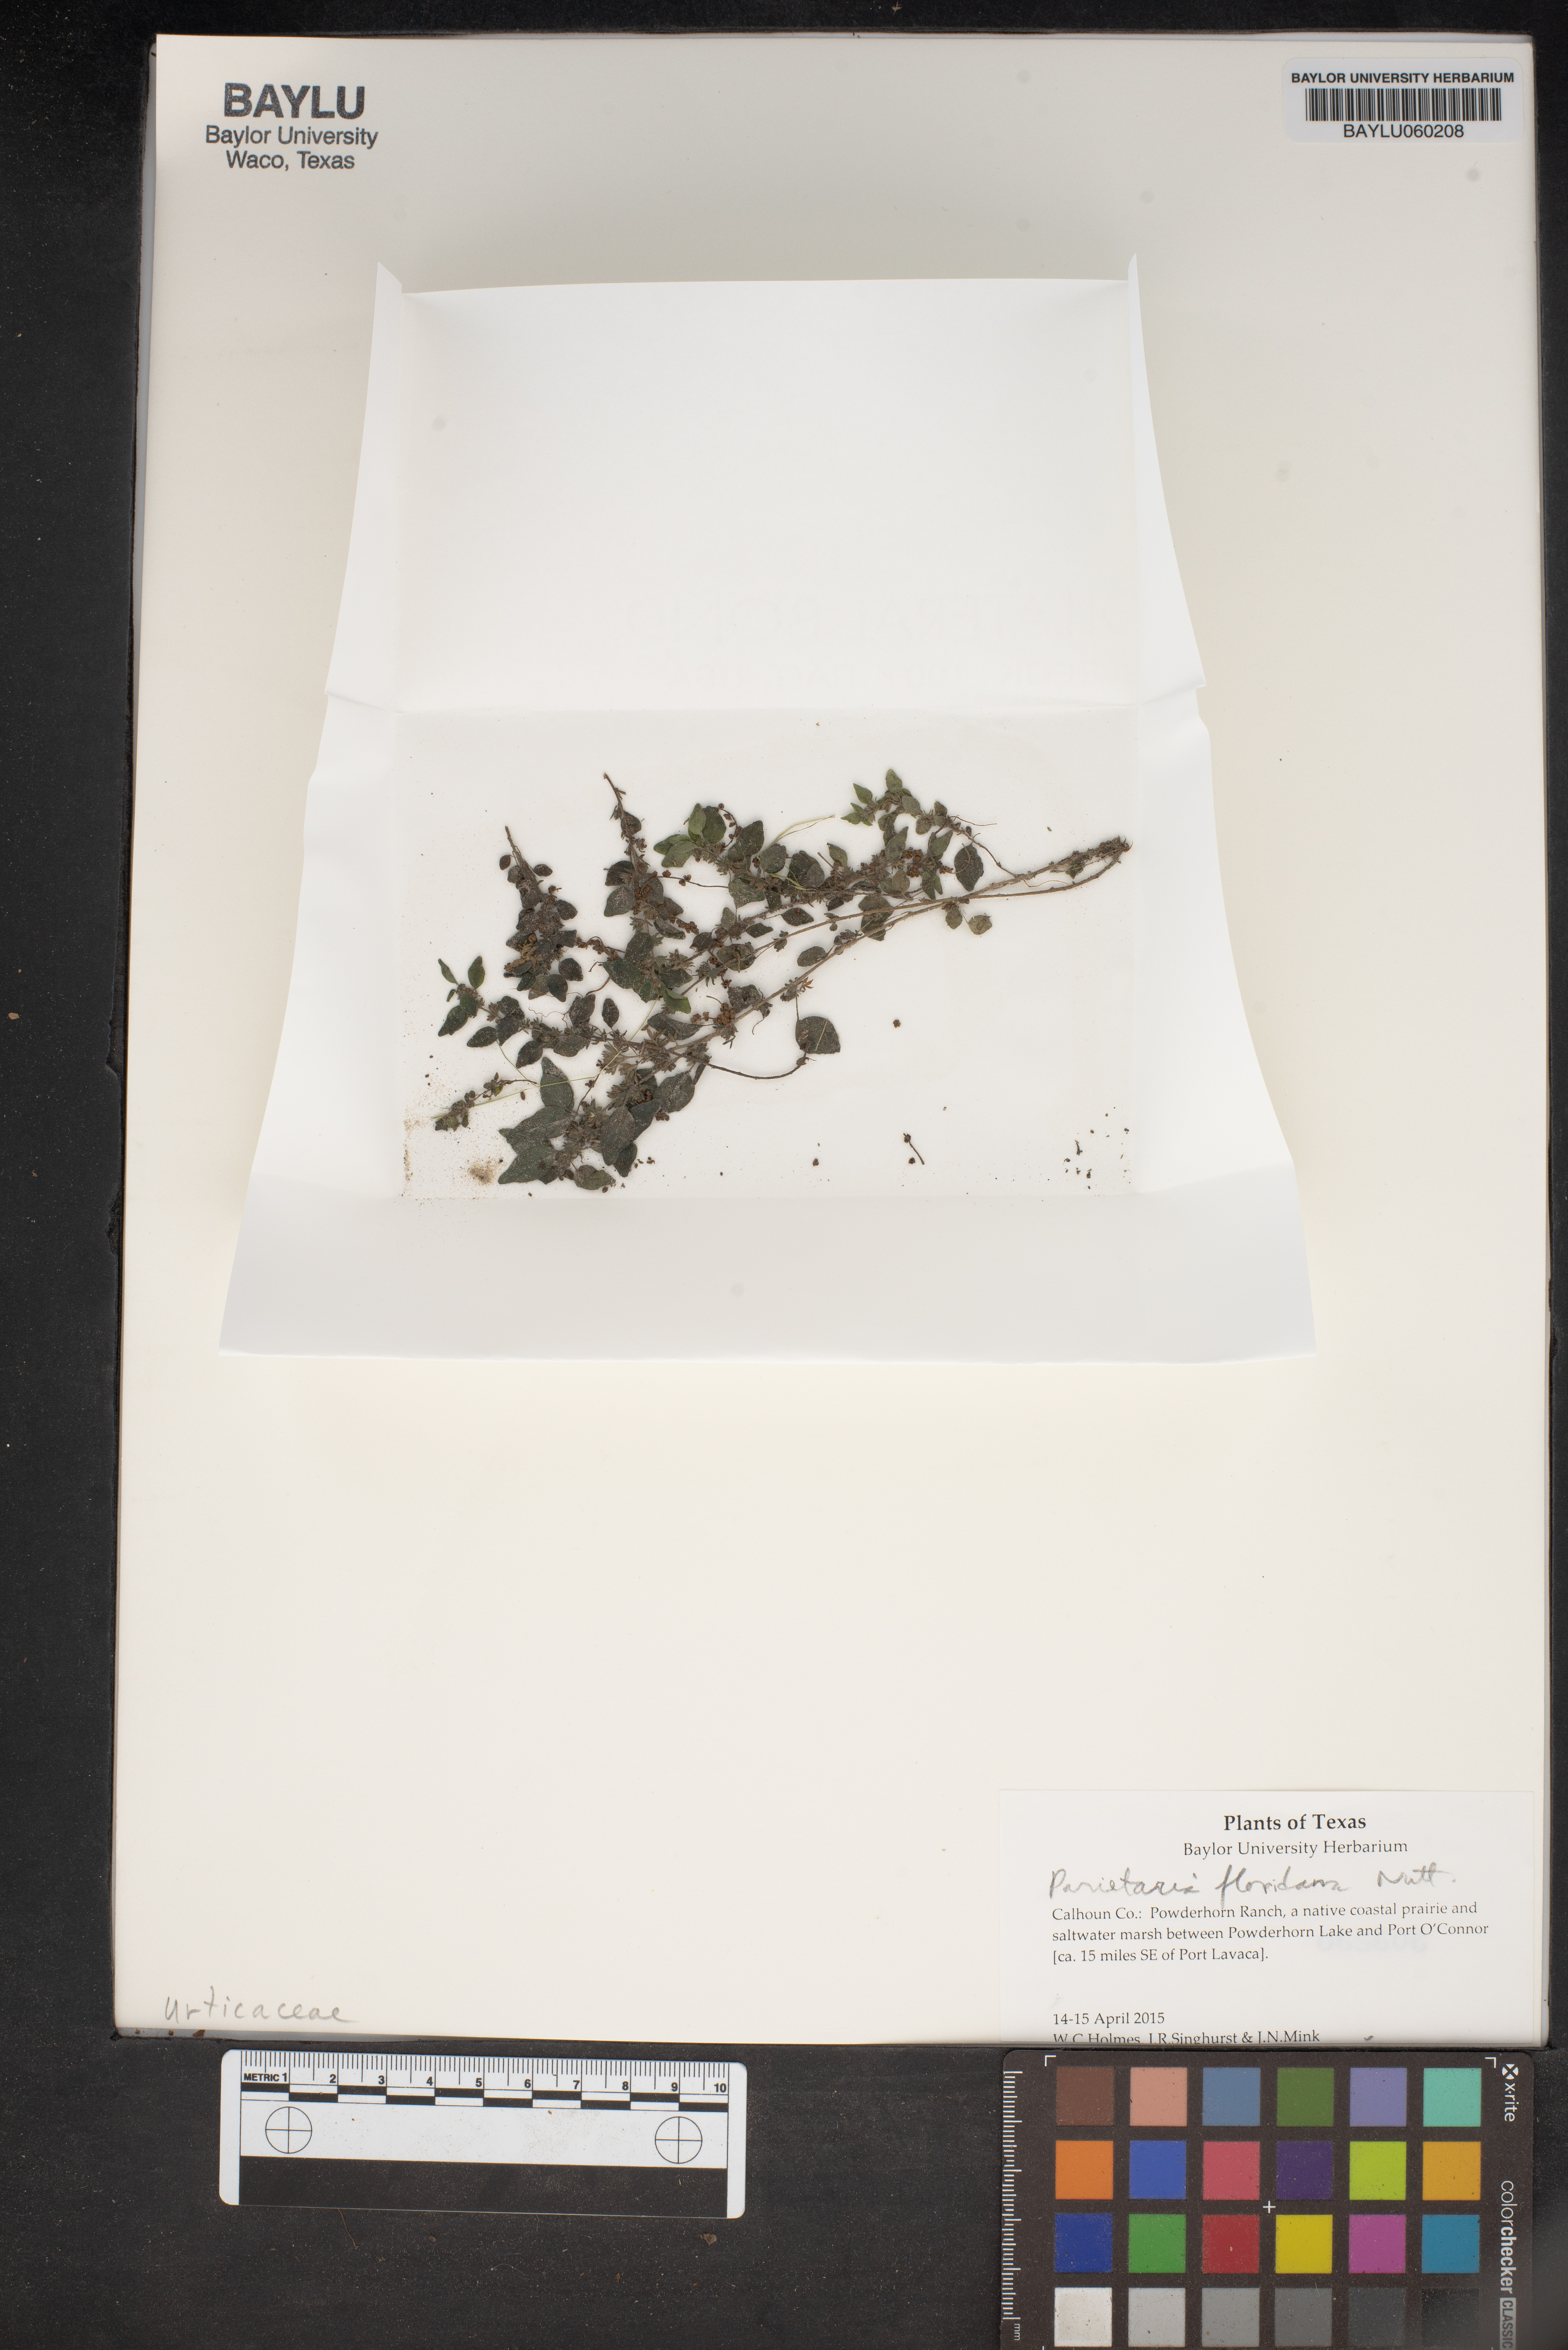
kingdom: Plantae
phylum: Tracheophyta
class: Magnoliopsida
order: Rosales
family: Urticaceae
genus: Parietaria
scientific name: Parietaria floridana
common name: Florida pellitory
